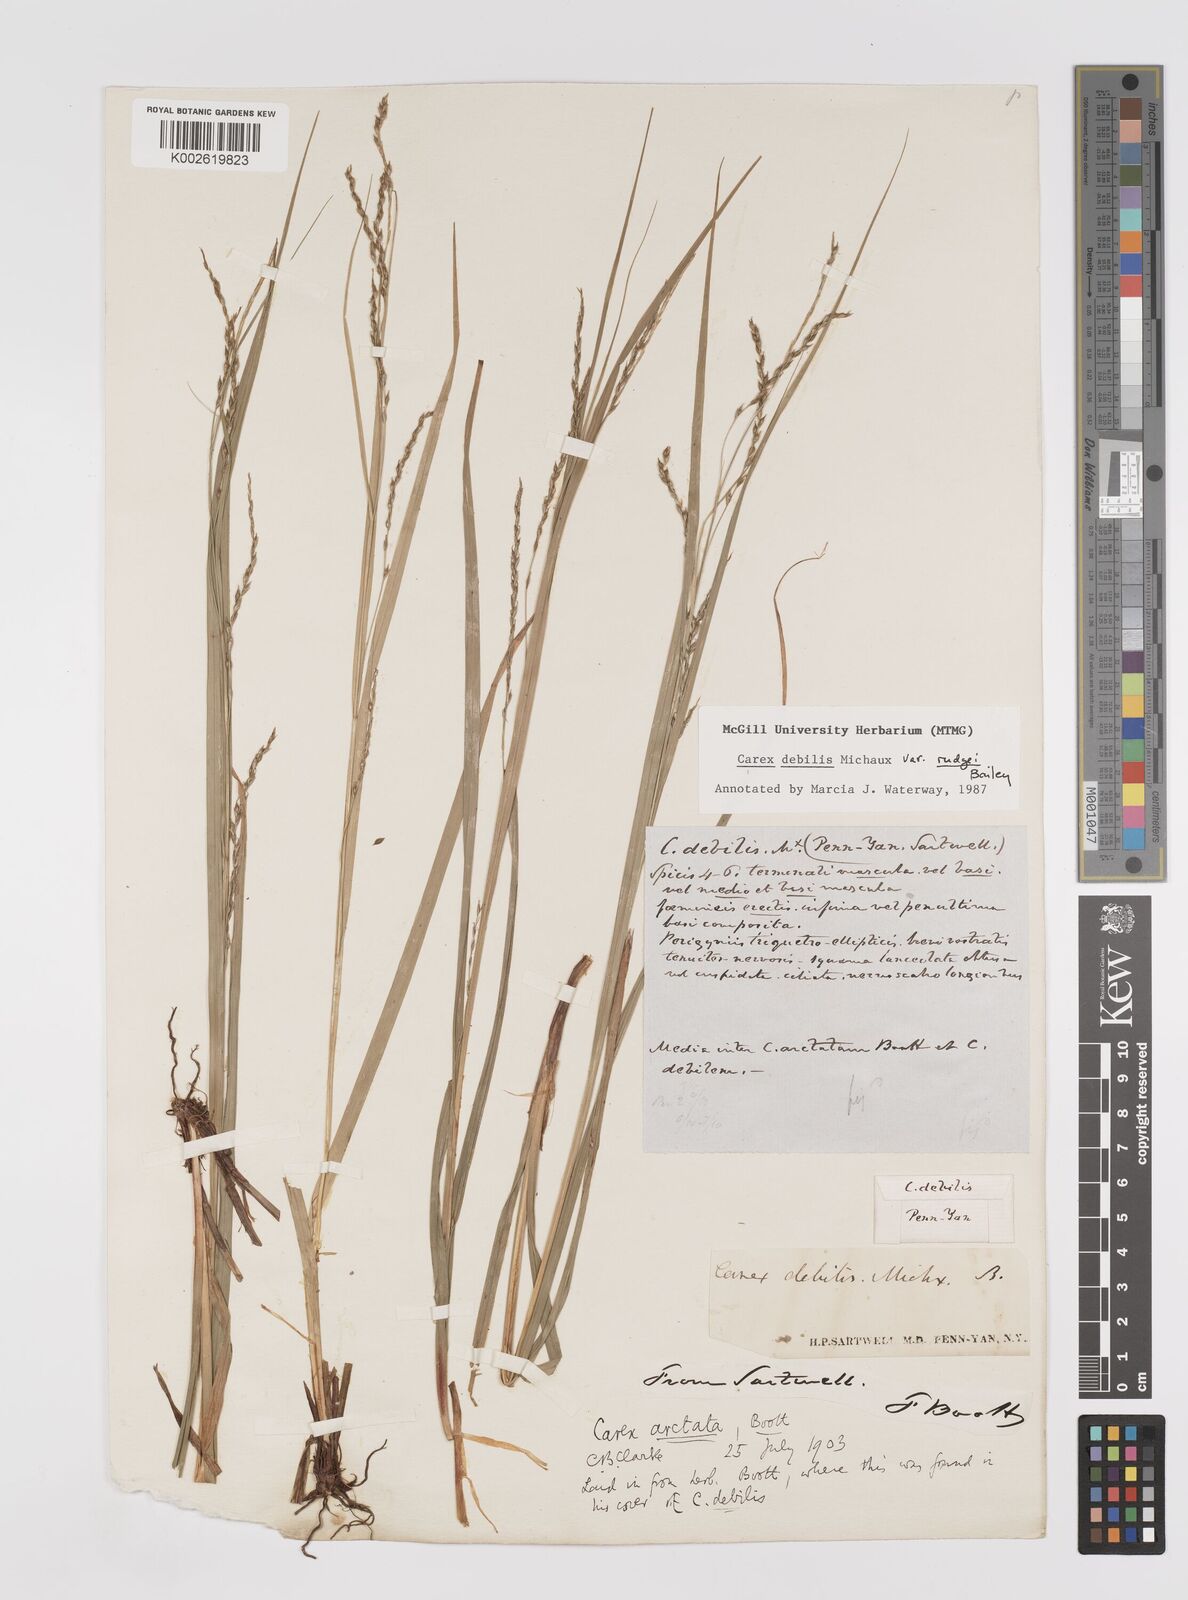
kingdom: Plantae
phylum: Tracheophyta
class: Liliopsida
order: Poales
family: Cyperaceae
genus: Carex
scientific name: Carex debilis
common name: White-edge sedge
